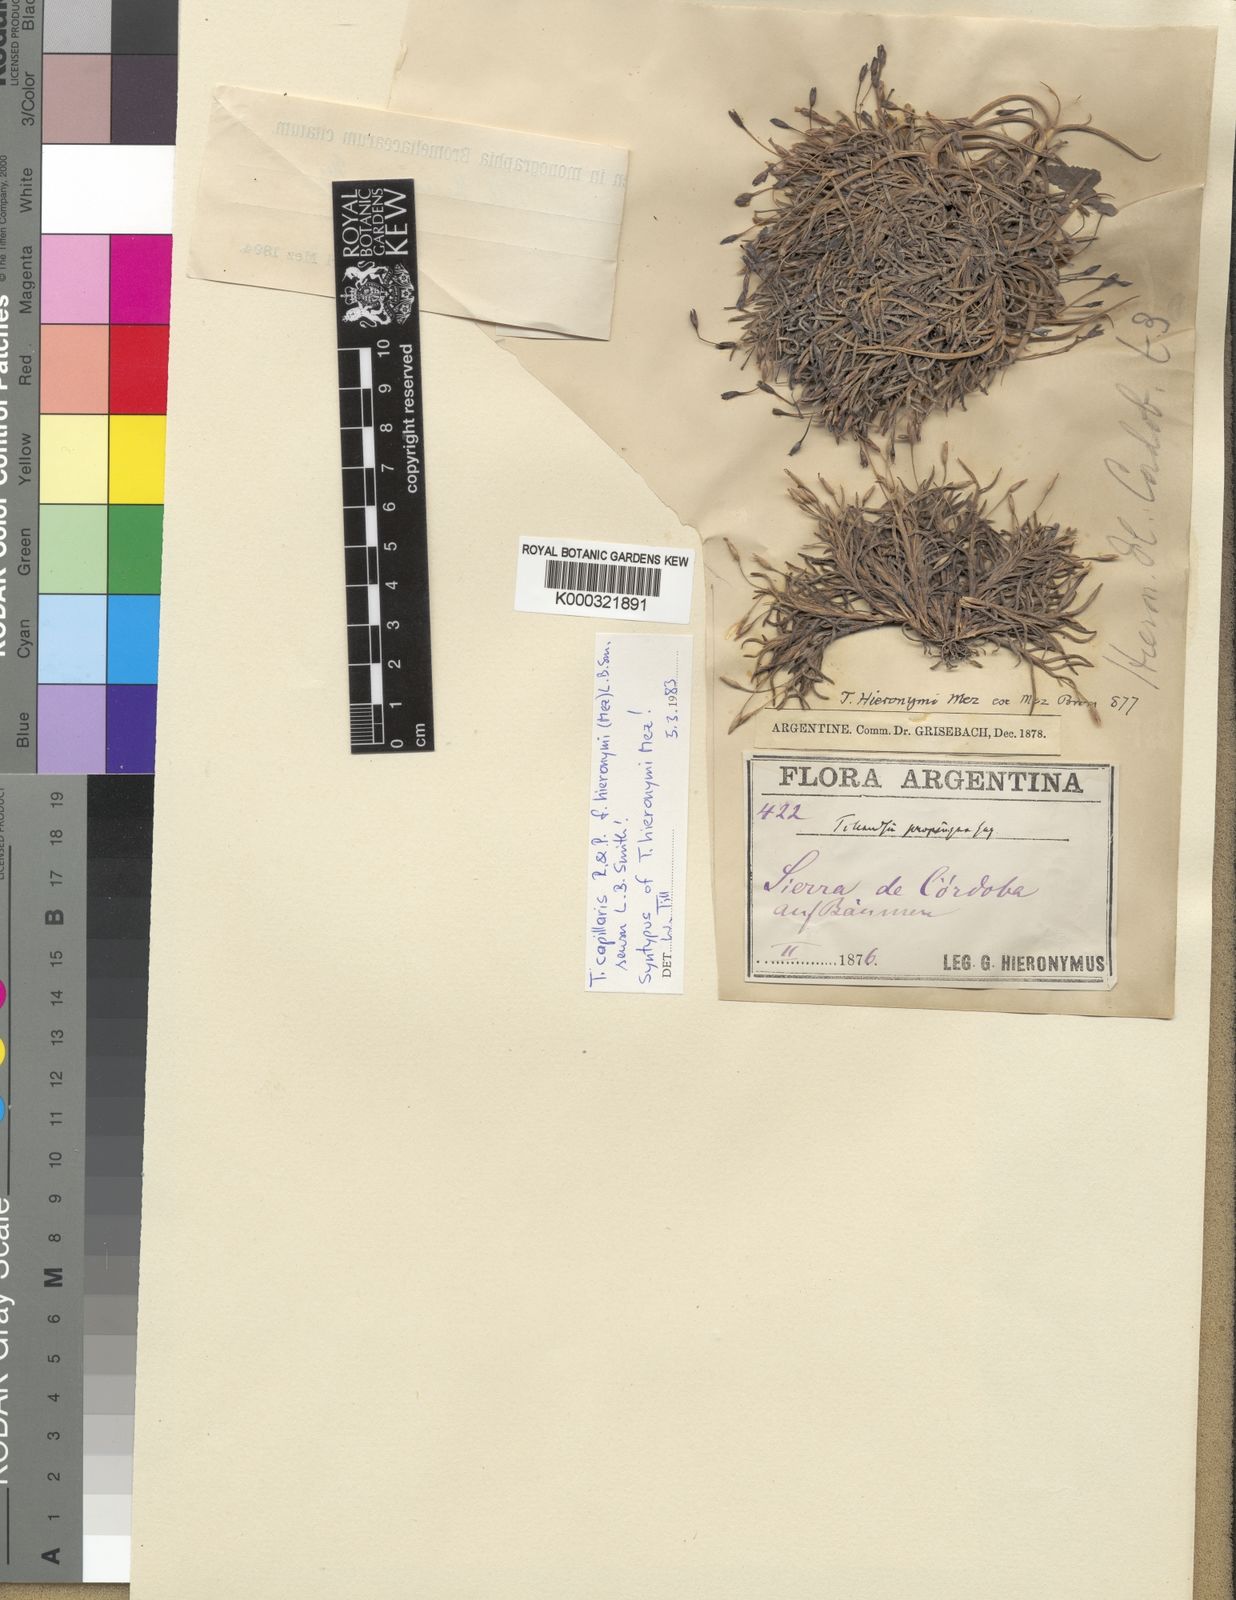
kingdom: Plantae
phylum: Tracheophyta
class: Liliopsida
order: Poales
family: Bromeliaceae
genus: Tillandsia
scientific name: Tillandsia capillaris
